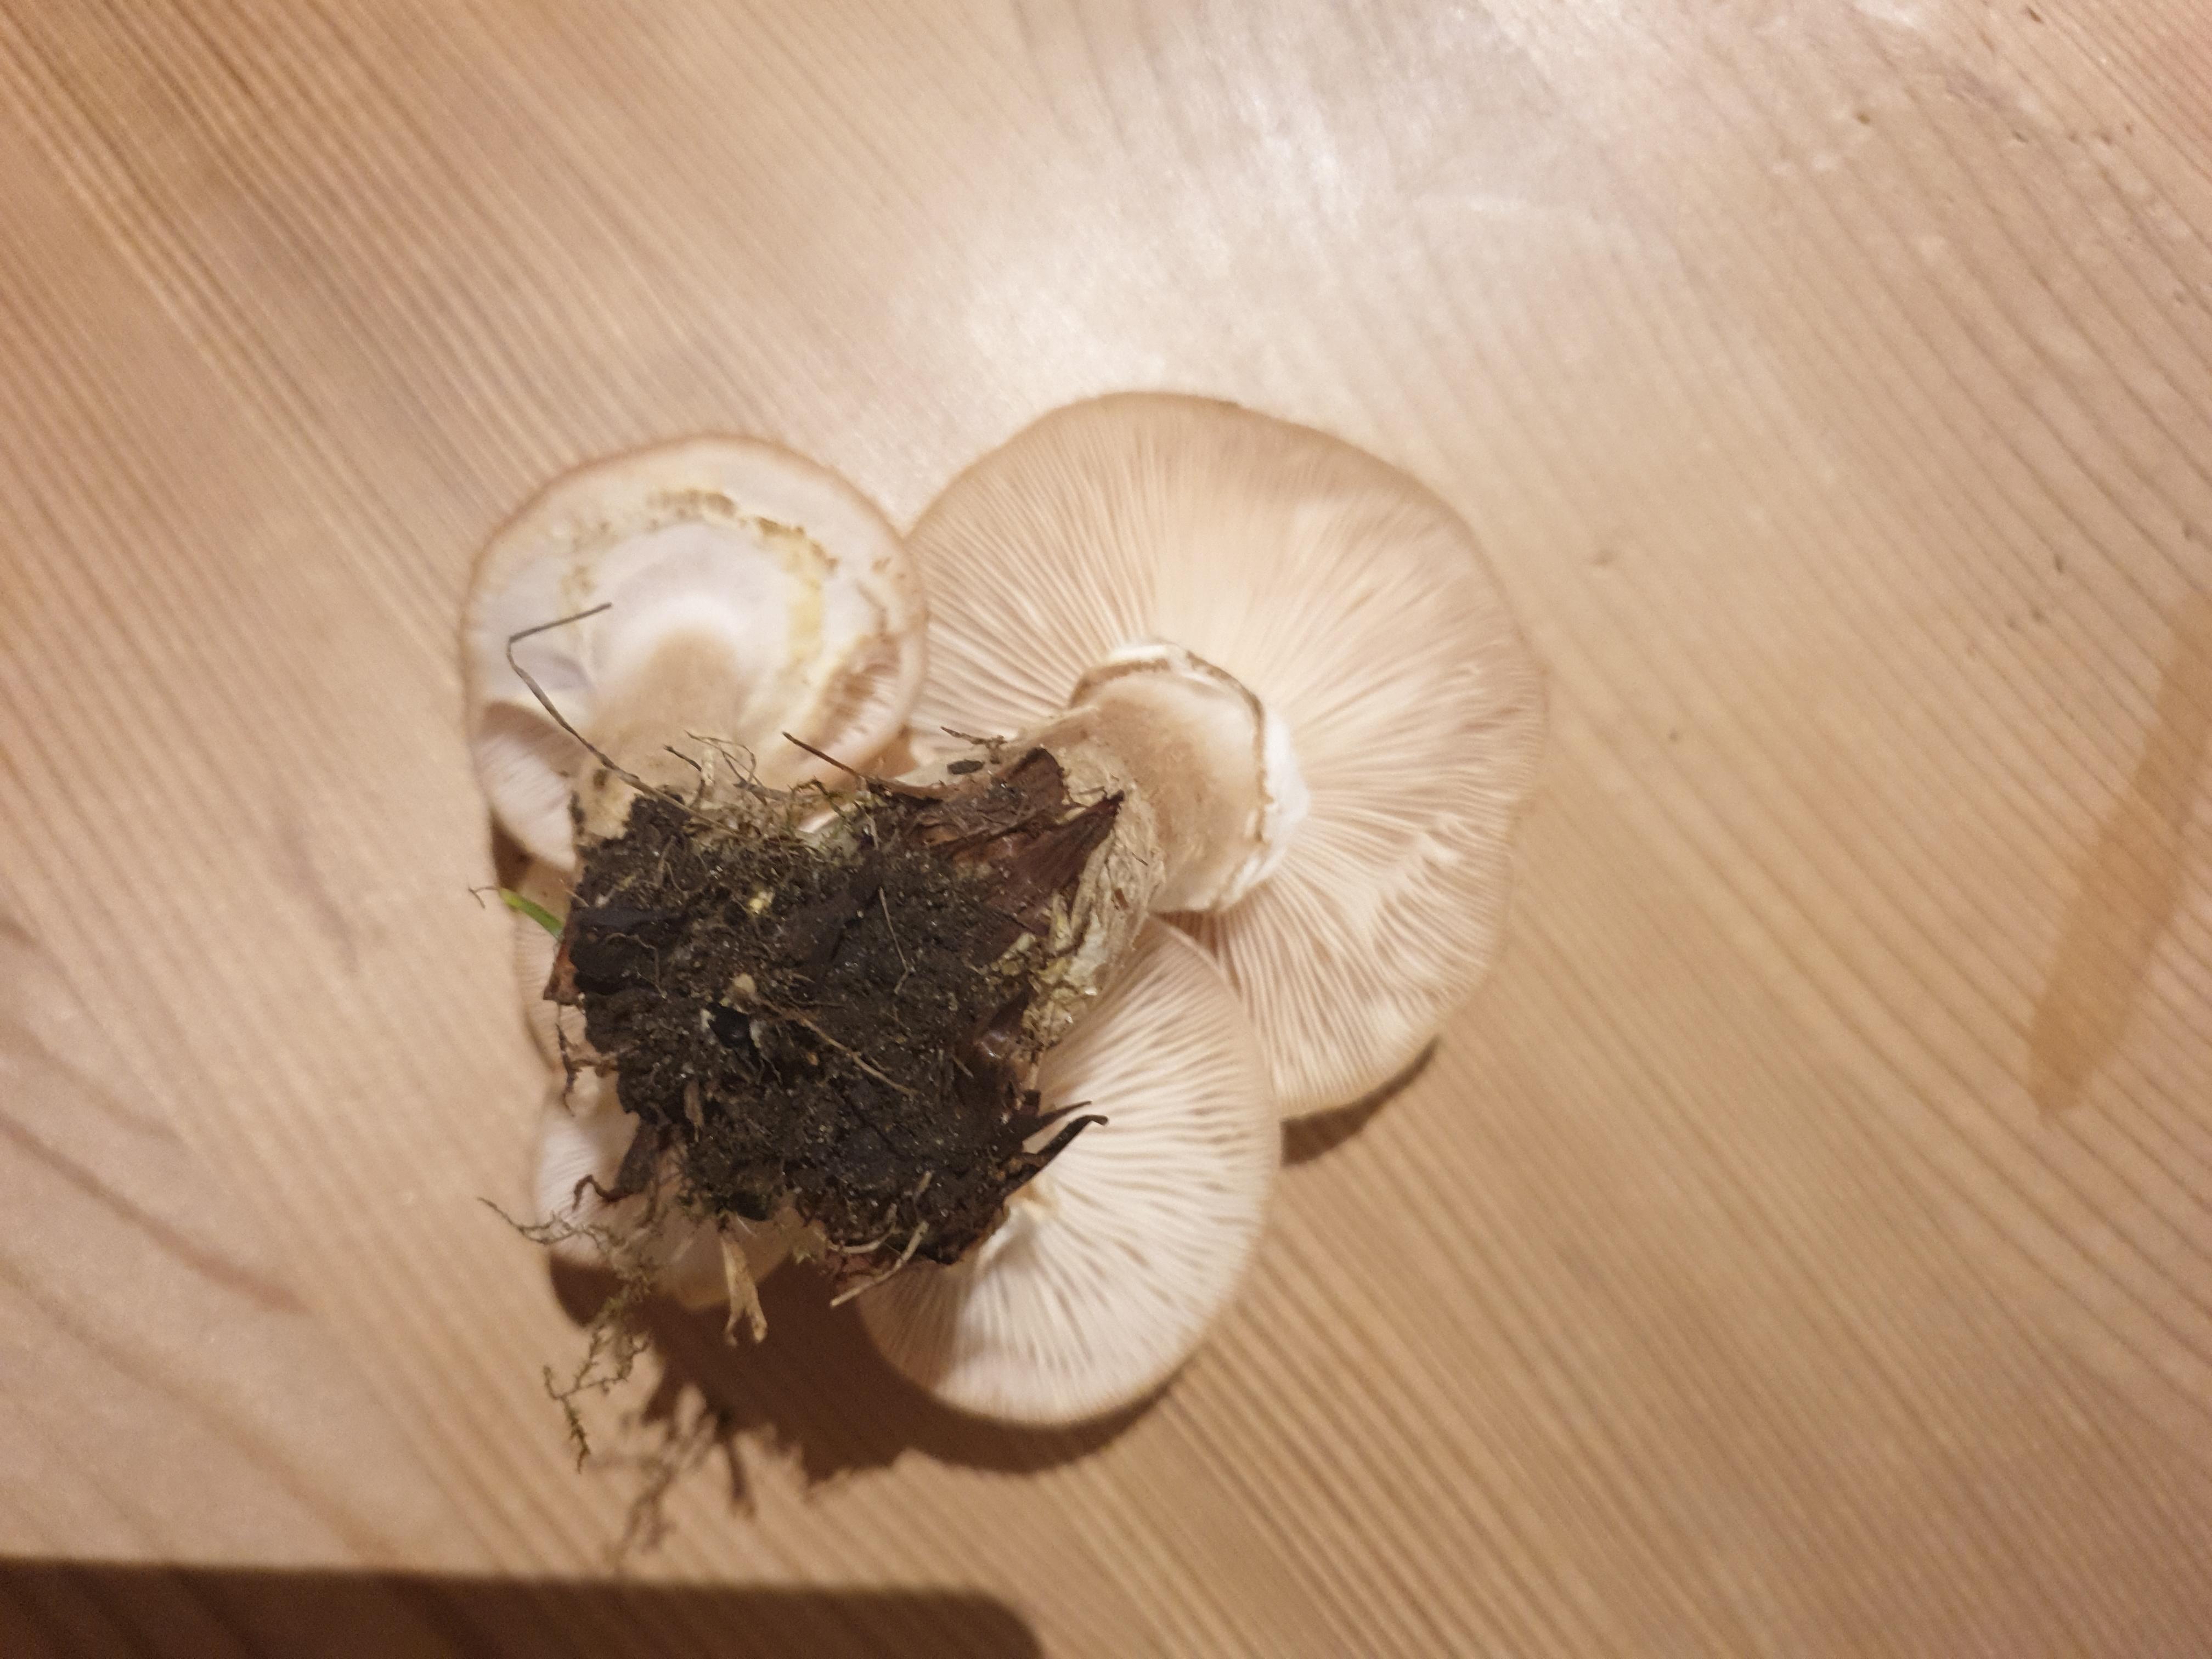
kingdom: Fungi
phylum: Basidiomycota
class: Agaricomycetes
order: Agaricales
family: Physalacriaceae
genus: Armillaria
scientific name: Armillaria lutea
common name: køllestokket honningsvamp
